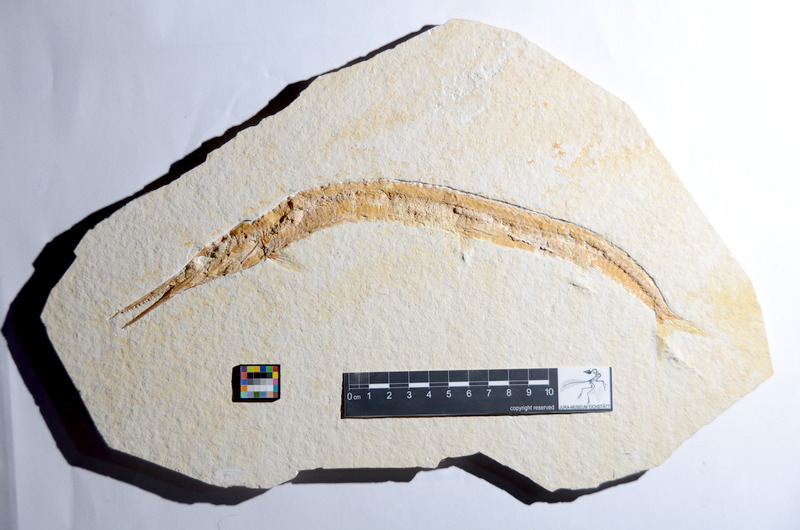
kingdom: Animalia
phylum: Chordata
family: Aspidorhynchidae
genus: Belonostomus
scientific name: Belonostomus sphyraenoides
